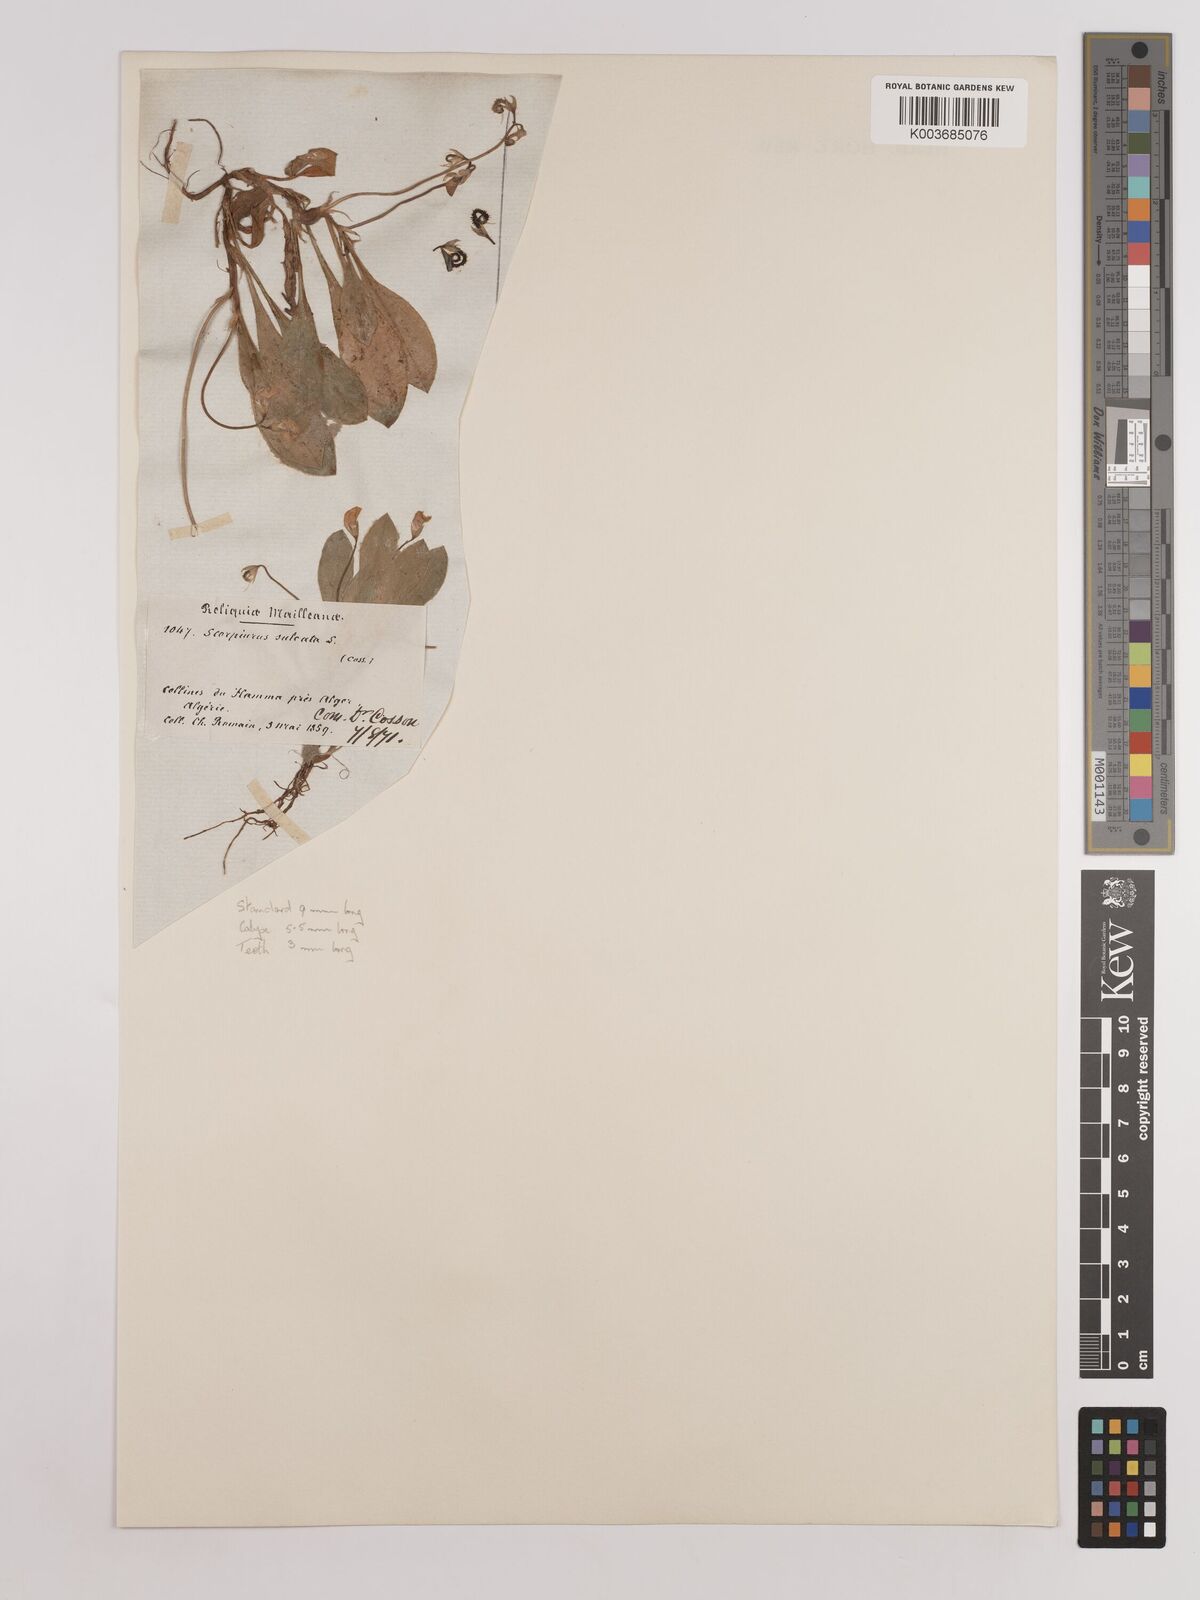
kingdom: Plantae
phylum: Tracheophyta
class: Magnoliopsida
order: Fabales
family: Fabaceae
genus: Scorpiurus
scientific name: Scorpiurus muricatus
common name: Caterpillar-plant
